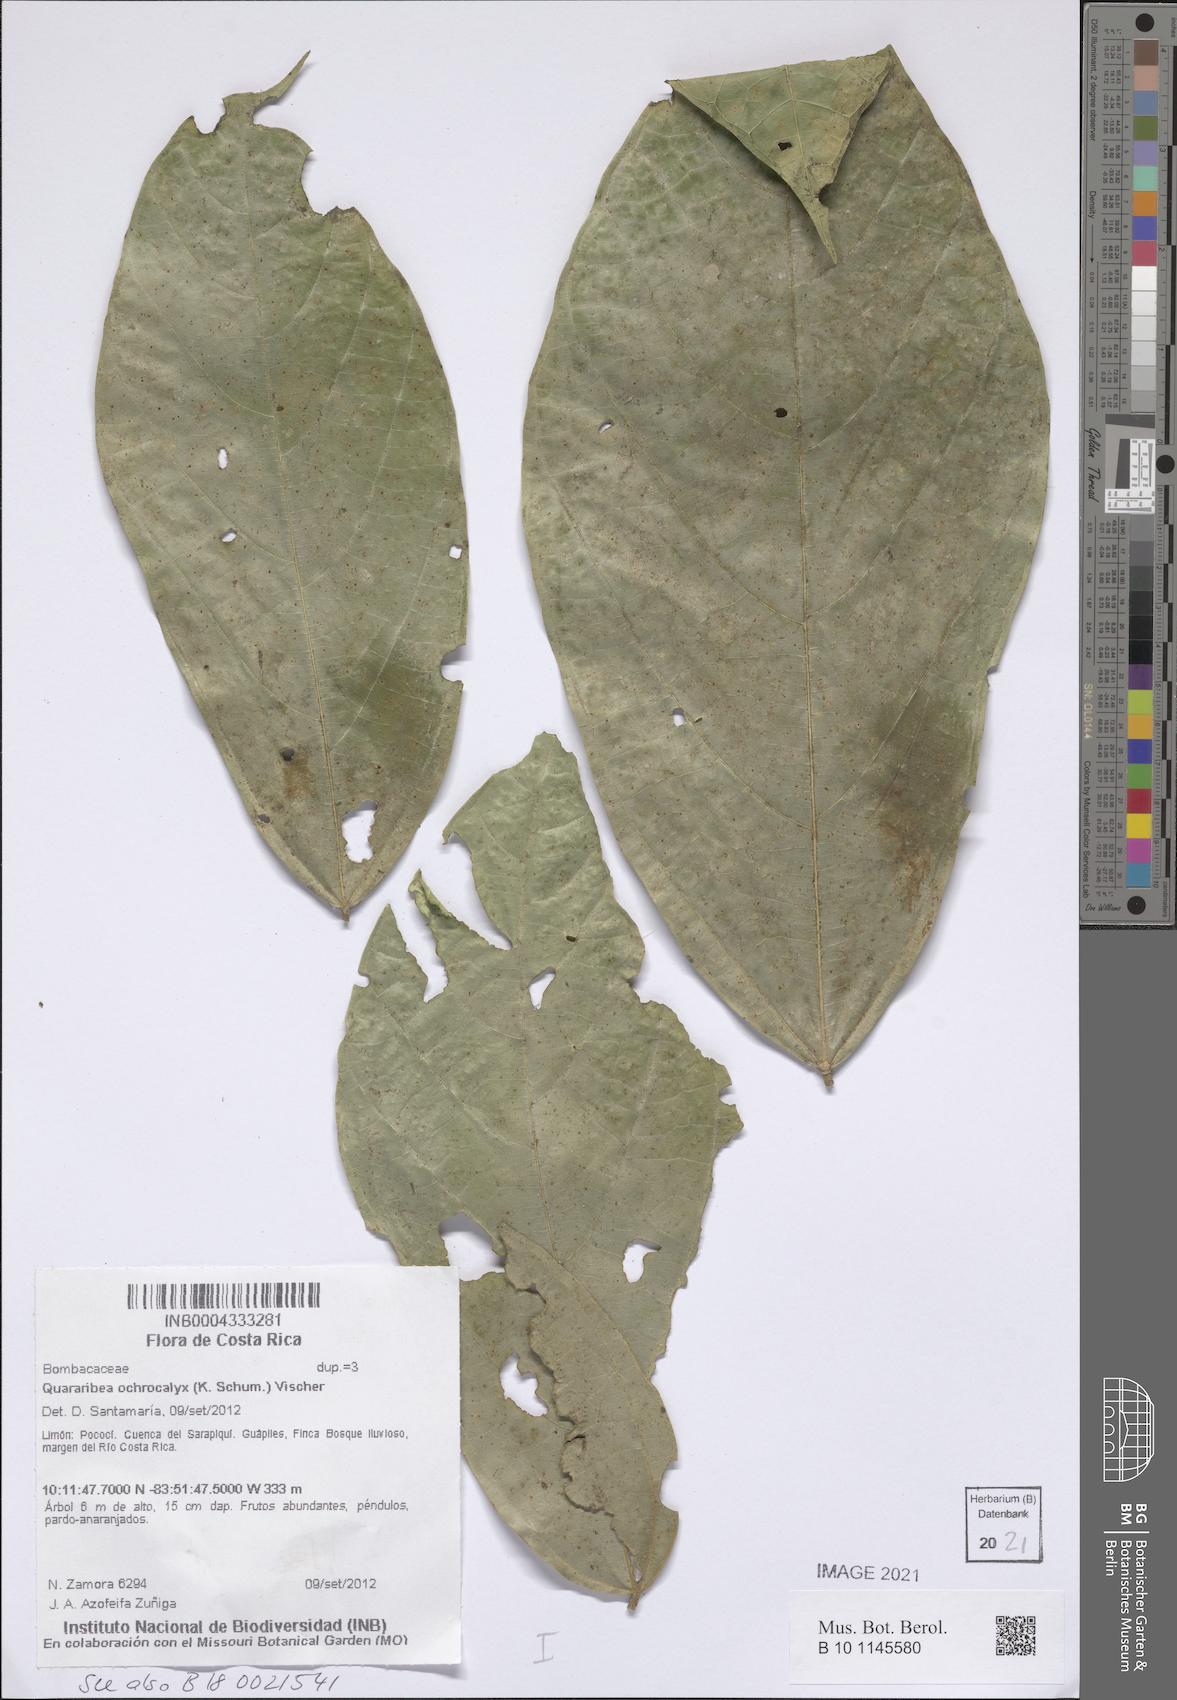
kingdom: Plantae
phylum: Tracheophyta
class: Magnoliopsida
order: Malvales
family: Malvaceae
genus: Matisia
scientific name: Matisia ochrocalyx
